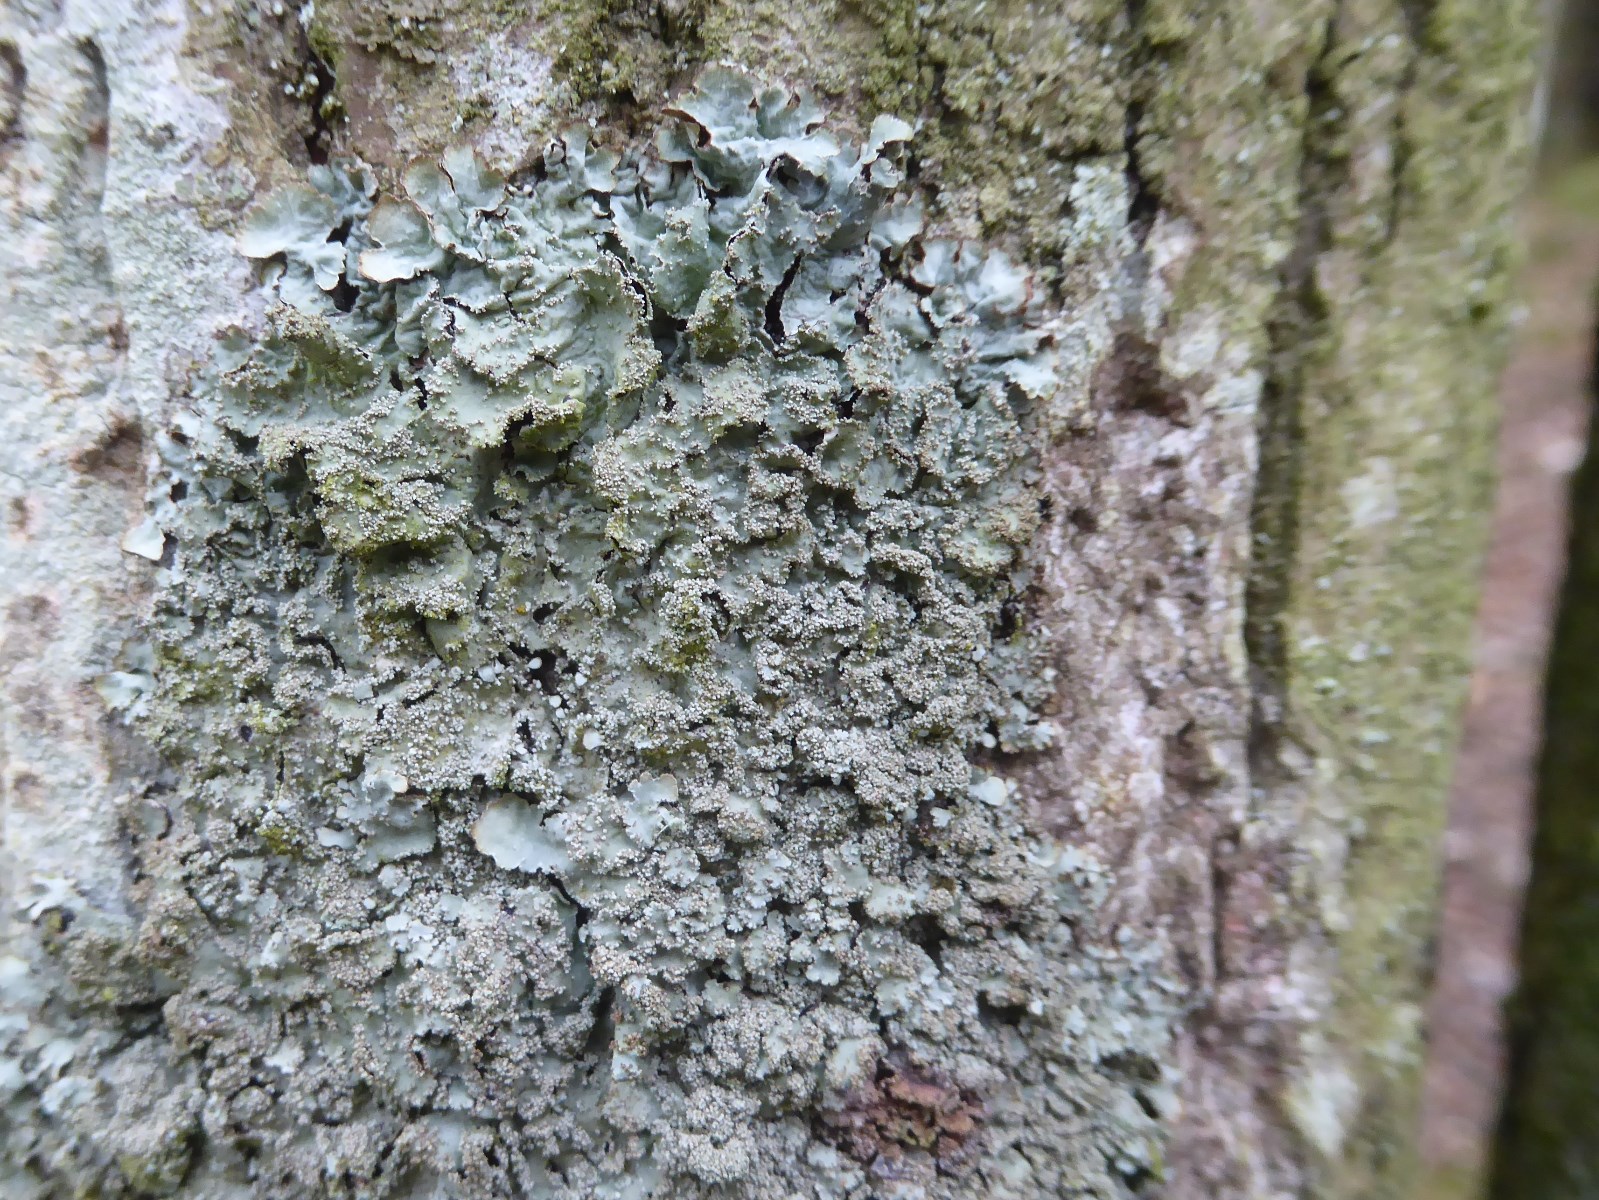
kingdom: Fungi
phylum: Ascomycota
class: Lecanoromycetes
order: Lecanorales
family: Parmeliaceae
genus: Parmelia
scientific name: Parmelia ernstiae
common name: rimstift-skållav
